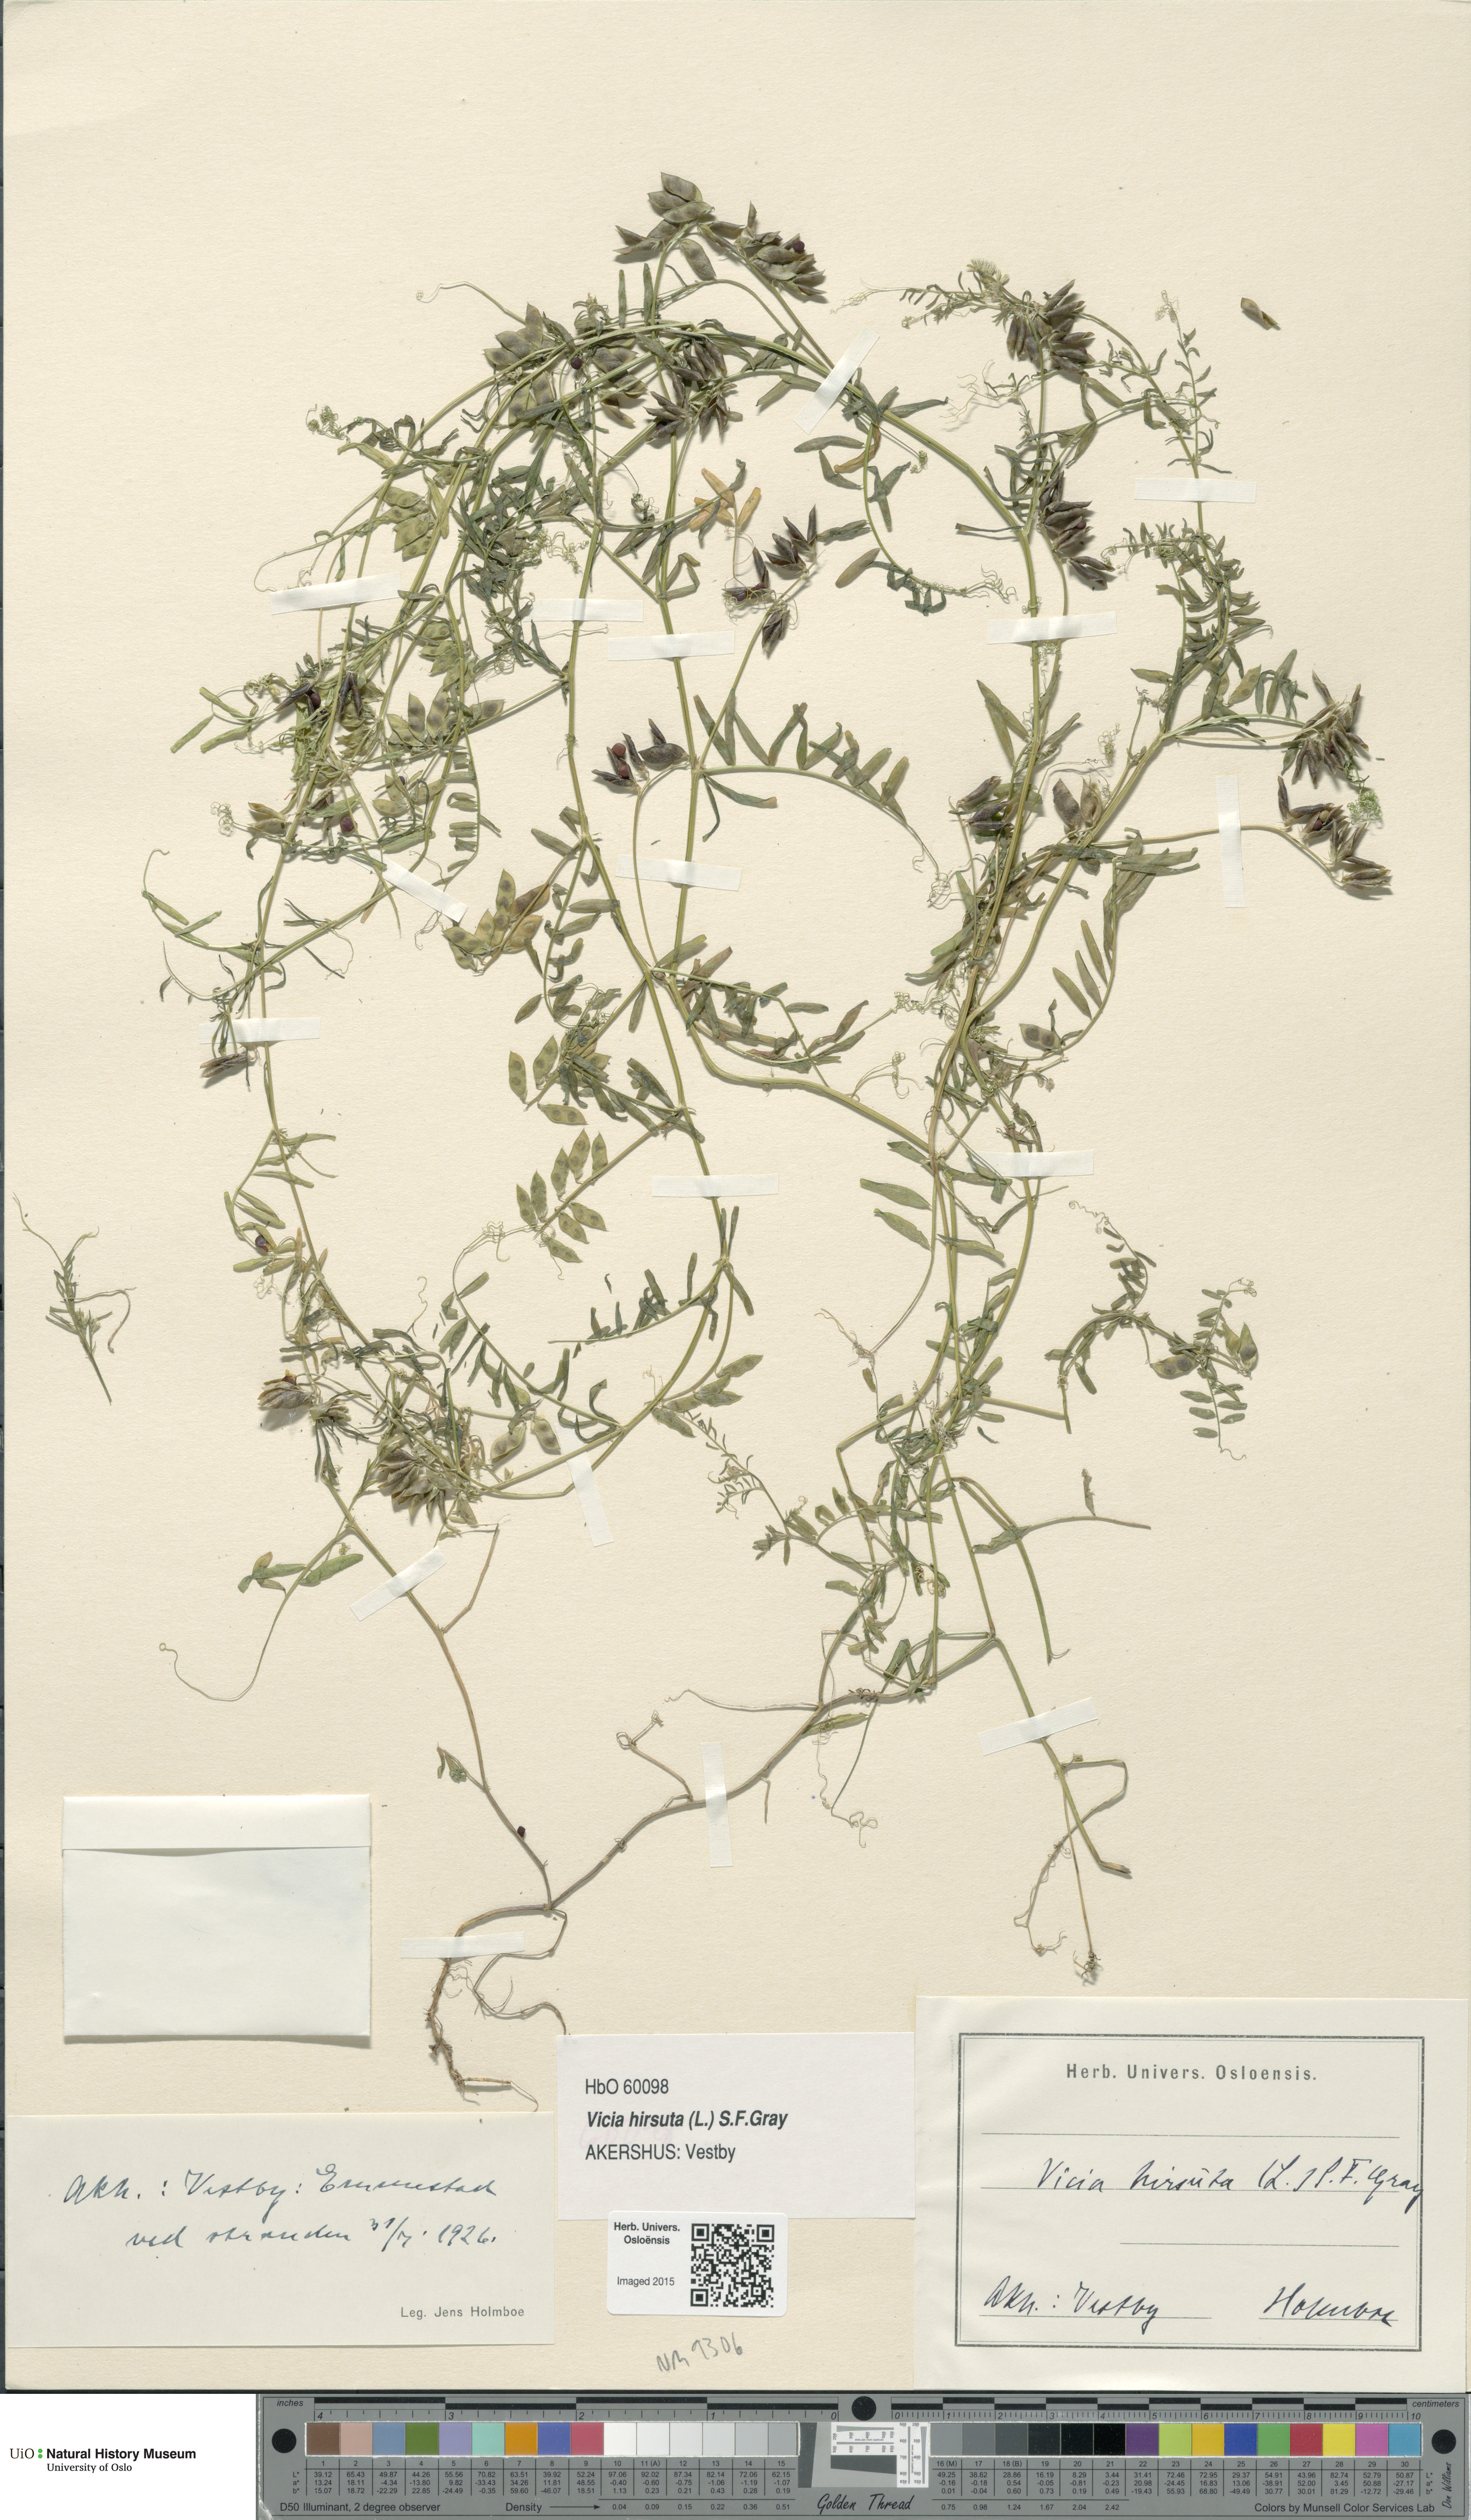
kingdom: Plantae
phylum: Tracheophyta
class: Magnoliopsida
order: Fabales
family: Fabaceae
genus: Vicia
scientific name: Vicia hirsuta
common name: Tiny vetch
